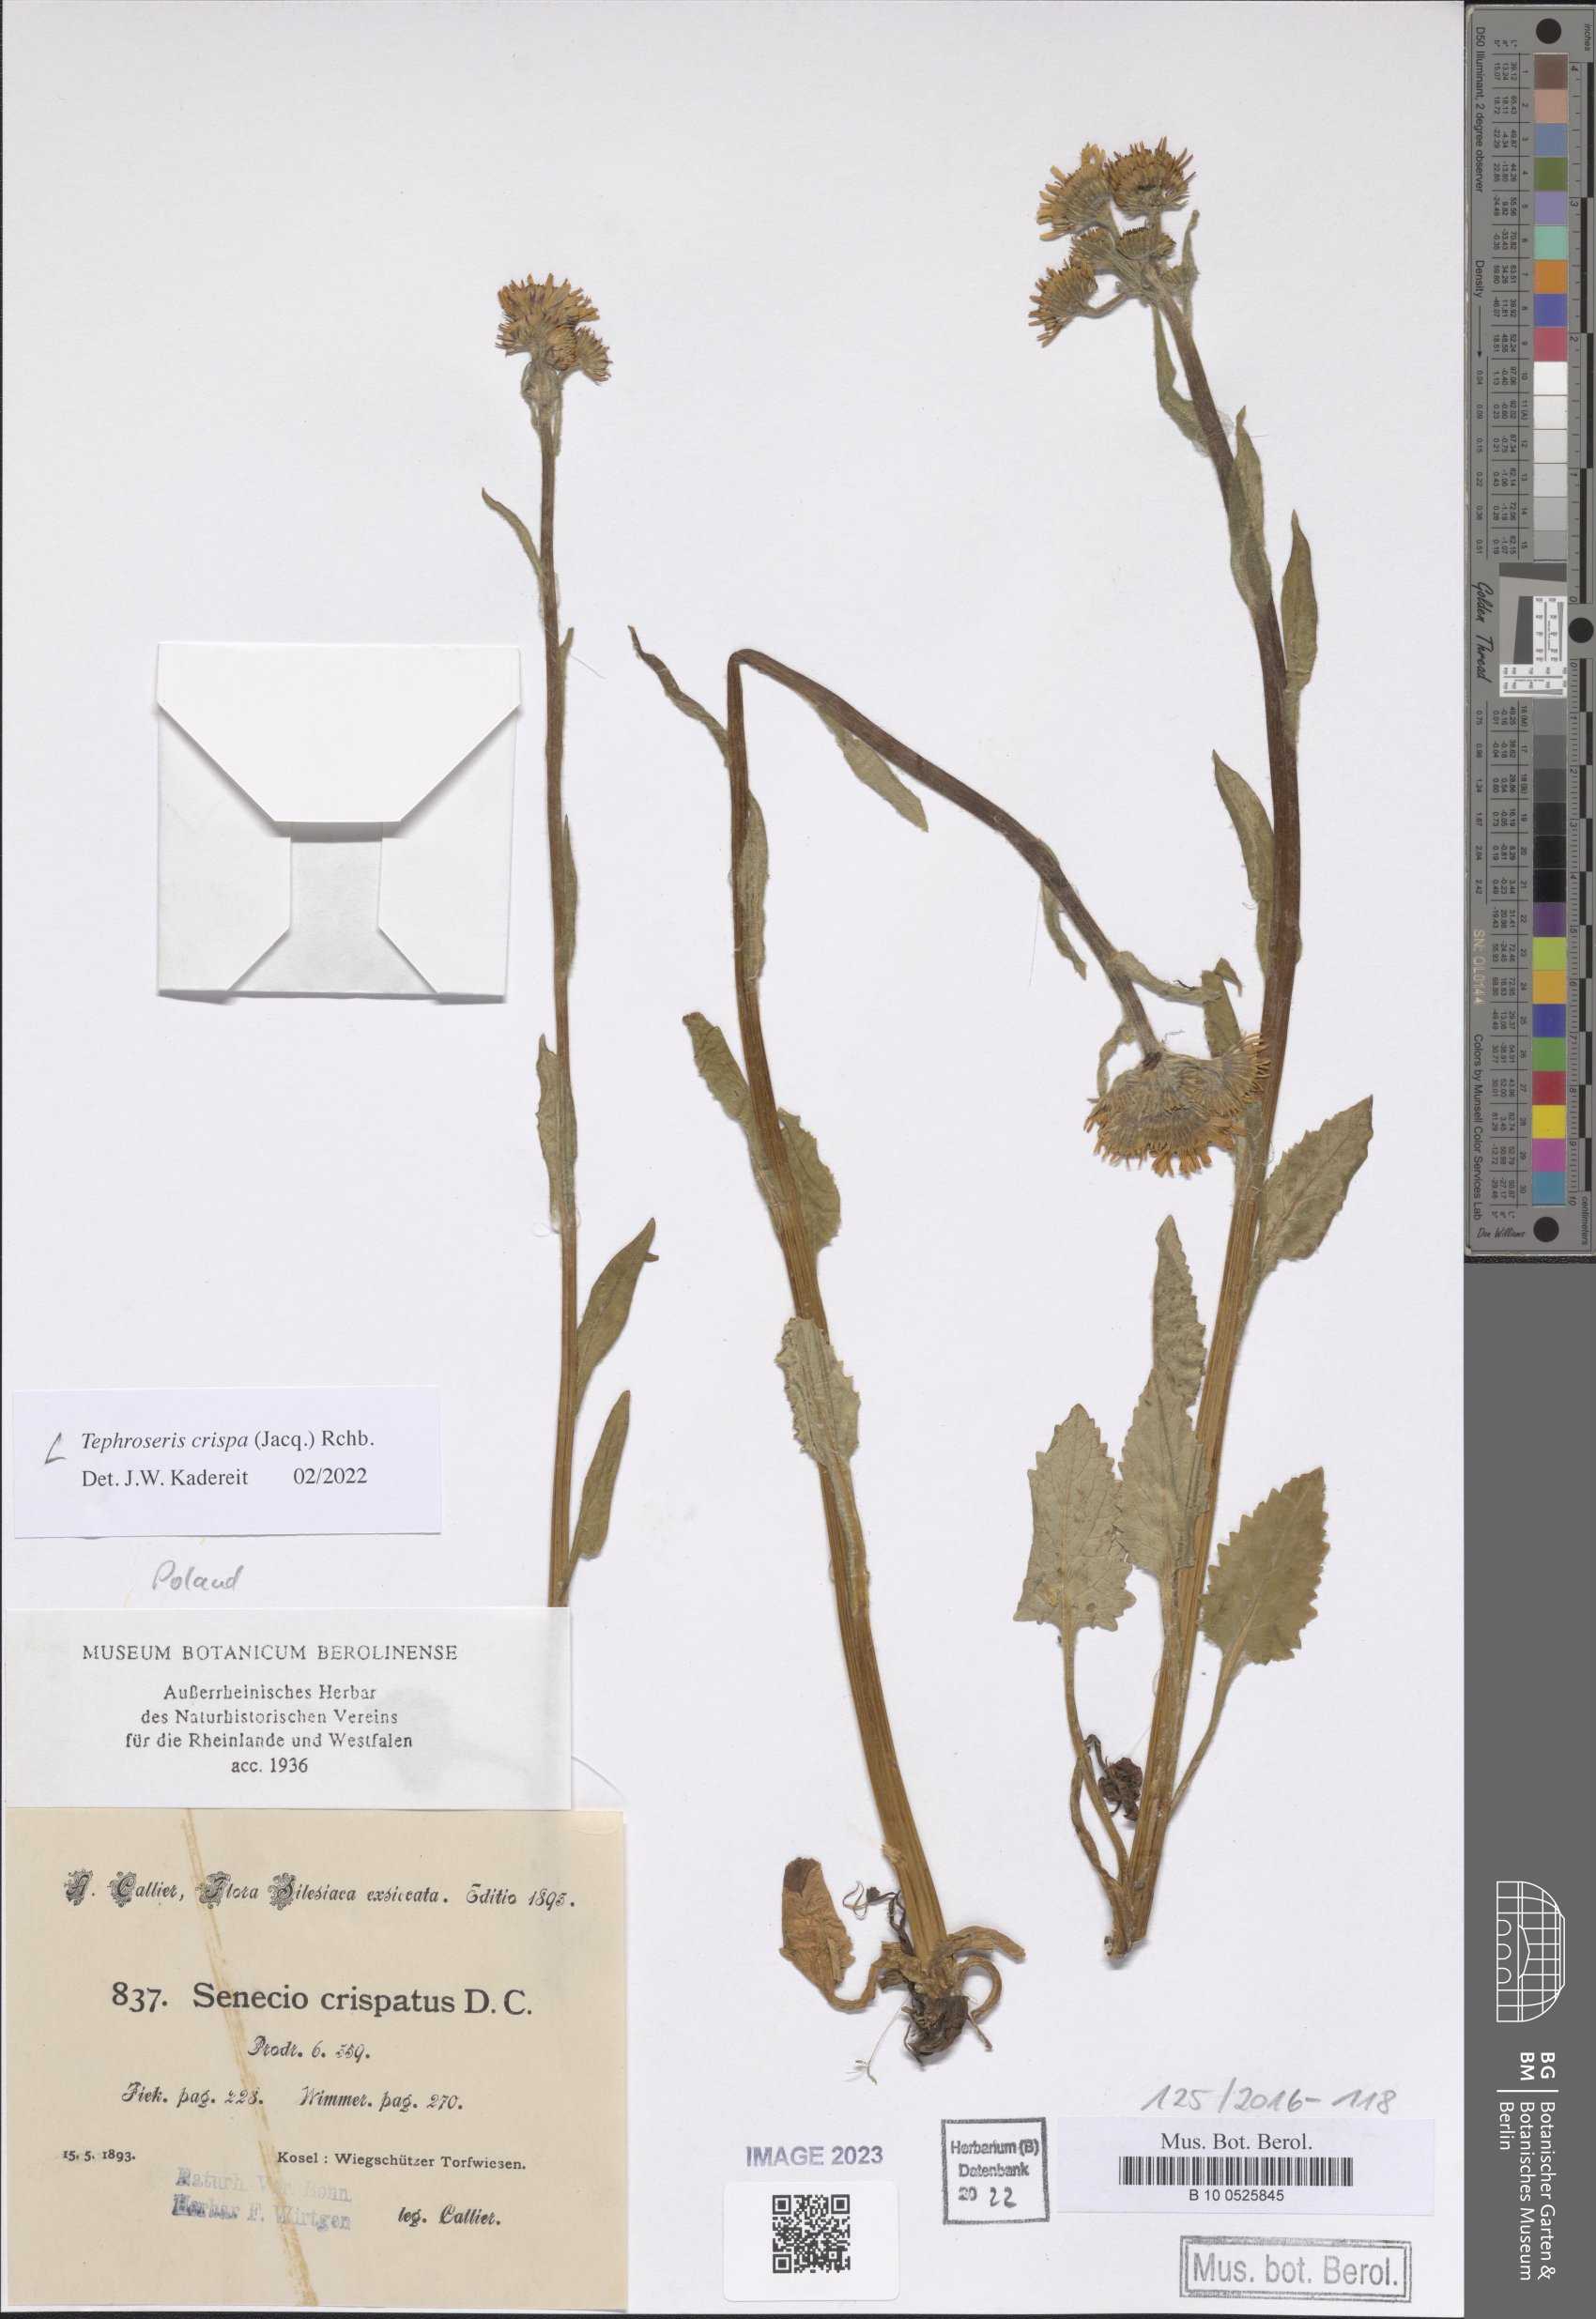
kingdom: Plantae
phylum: Tracheophyta
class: Magnoliopsida
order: Asterales
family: Asteraceae
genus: Tephroseris
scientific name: Tephroseris crispa
